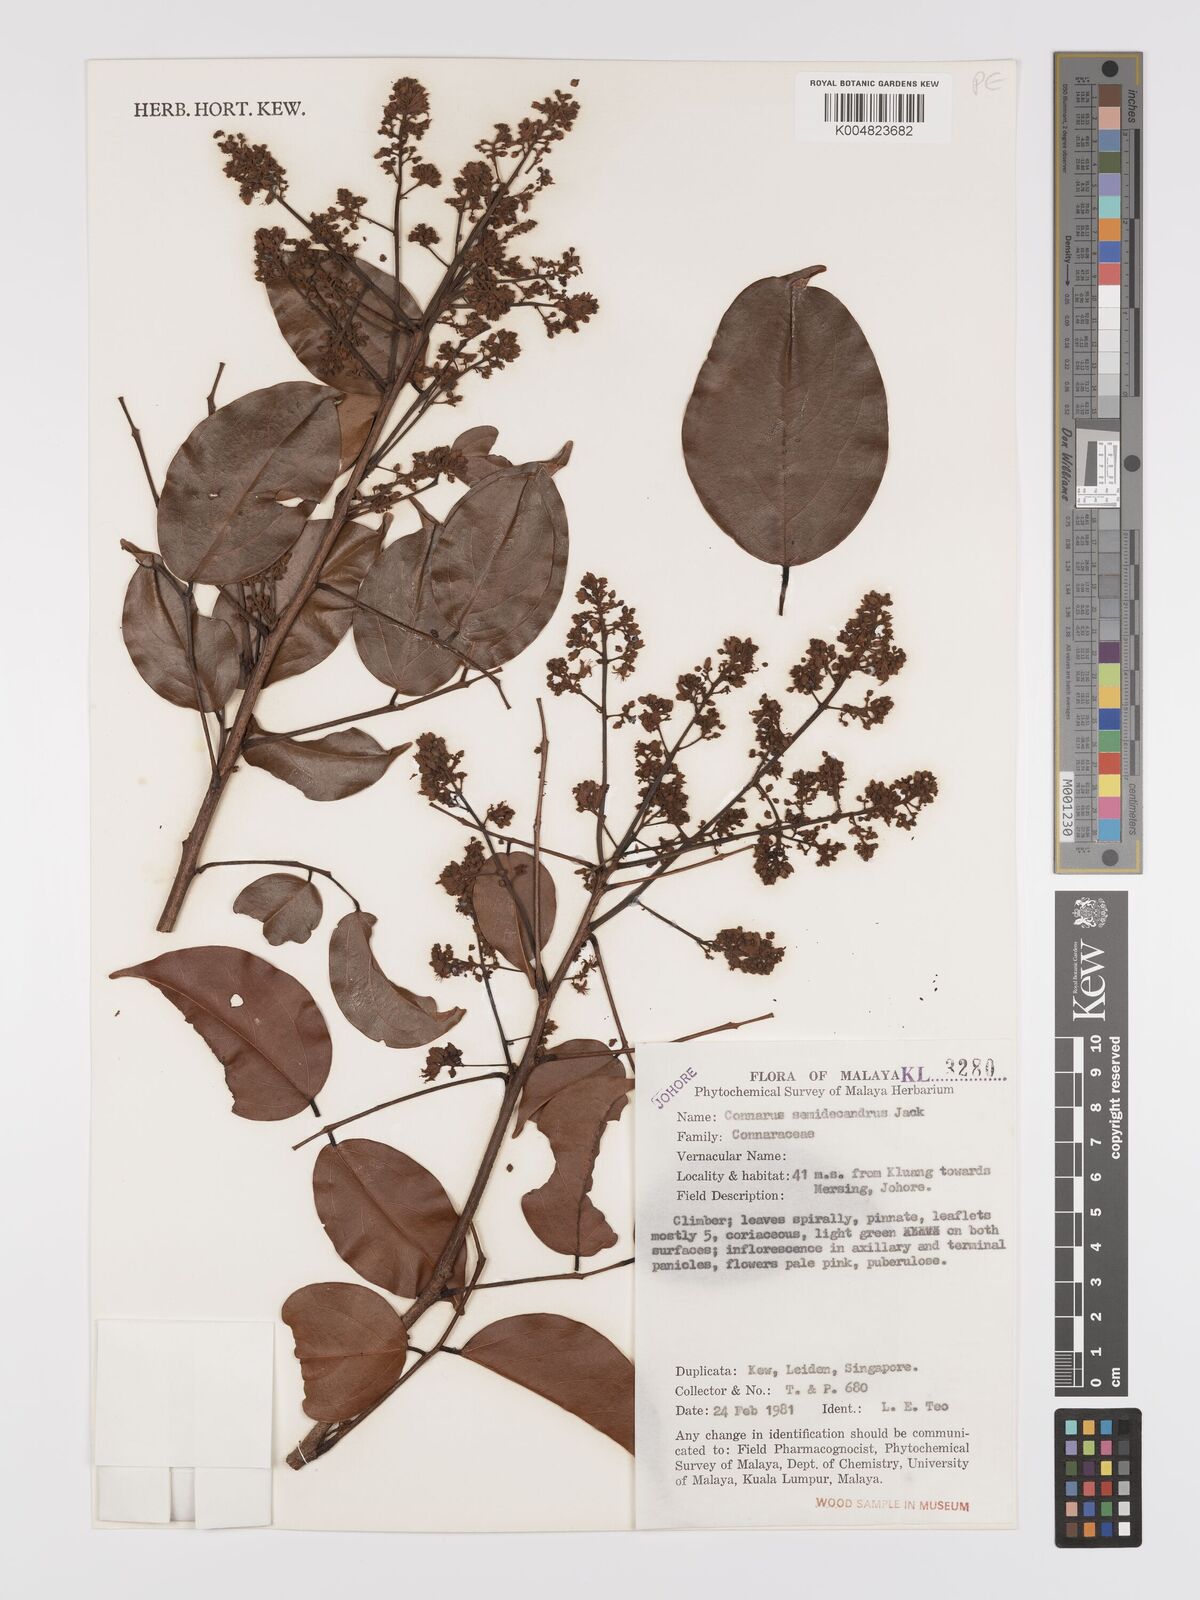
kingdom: Plantae
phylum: Tracheophyta
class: Magnoliopsida
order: Oxalidales
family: Connaraceae
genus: Connarus
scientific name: Connarus semidecandrus
